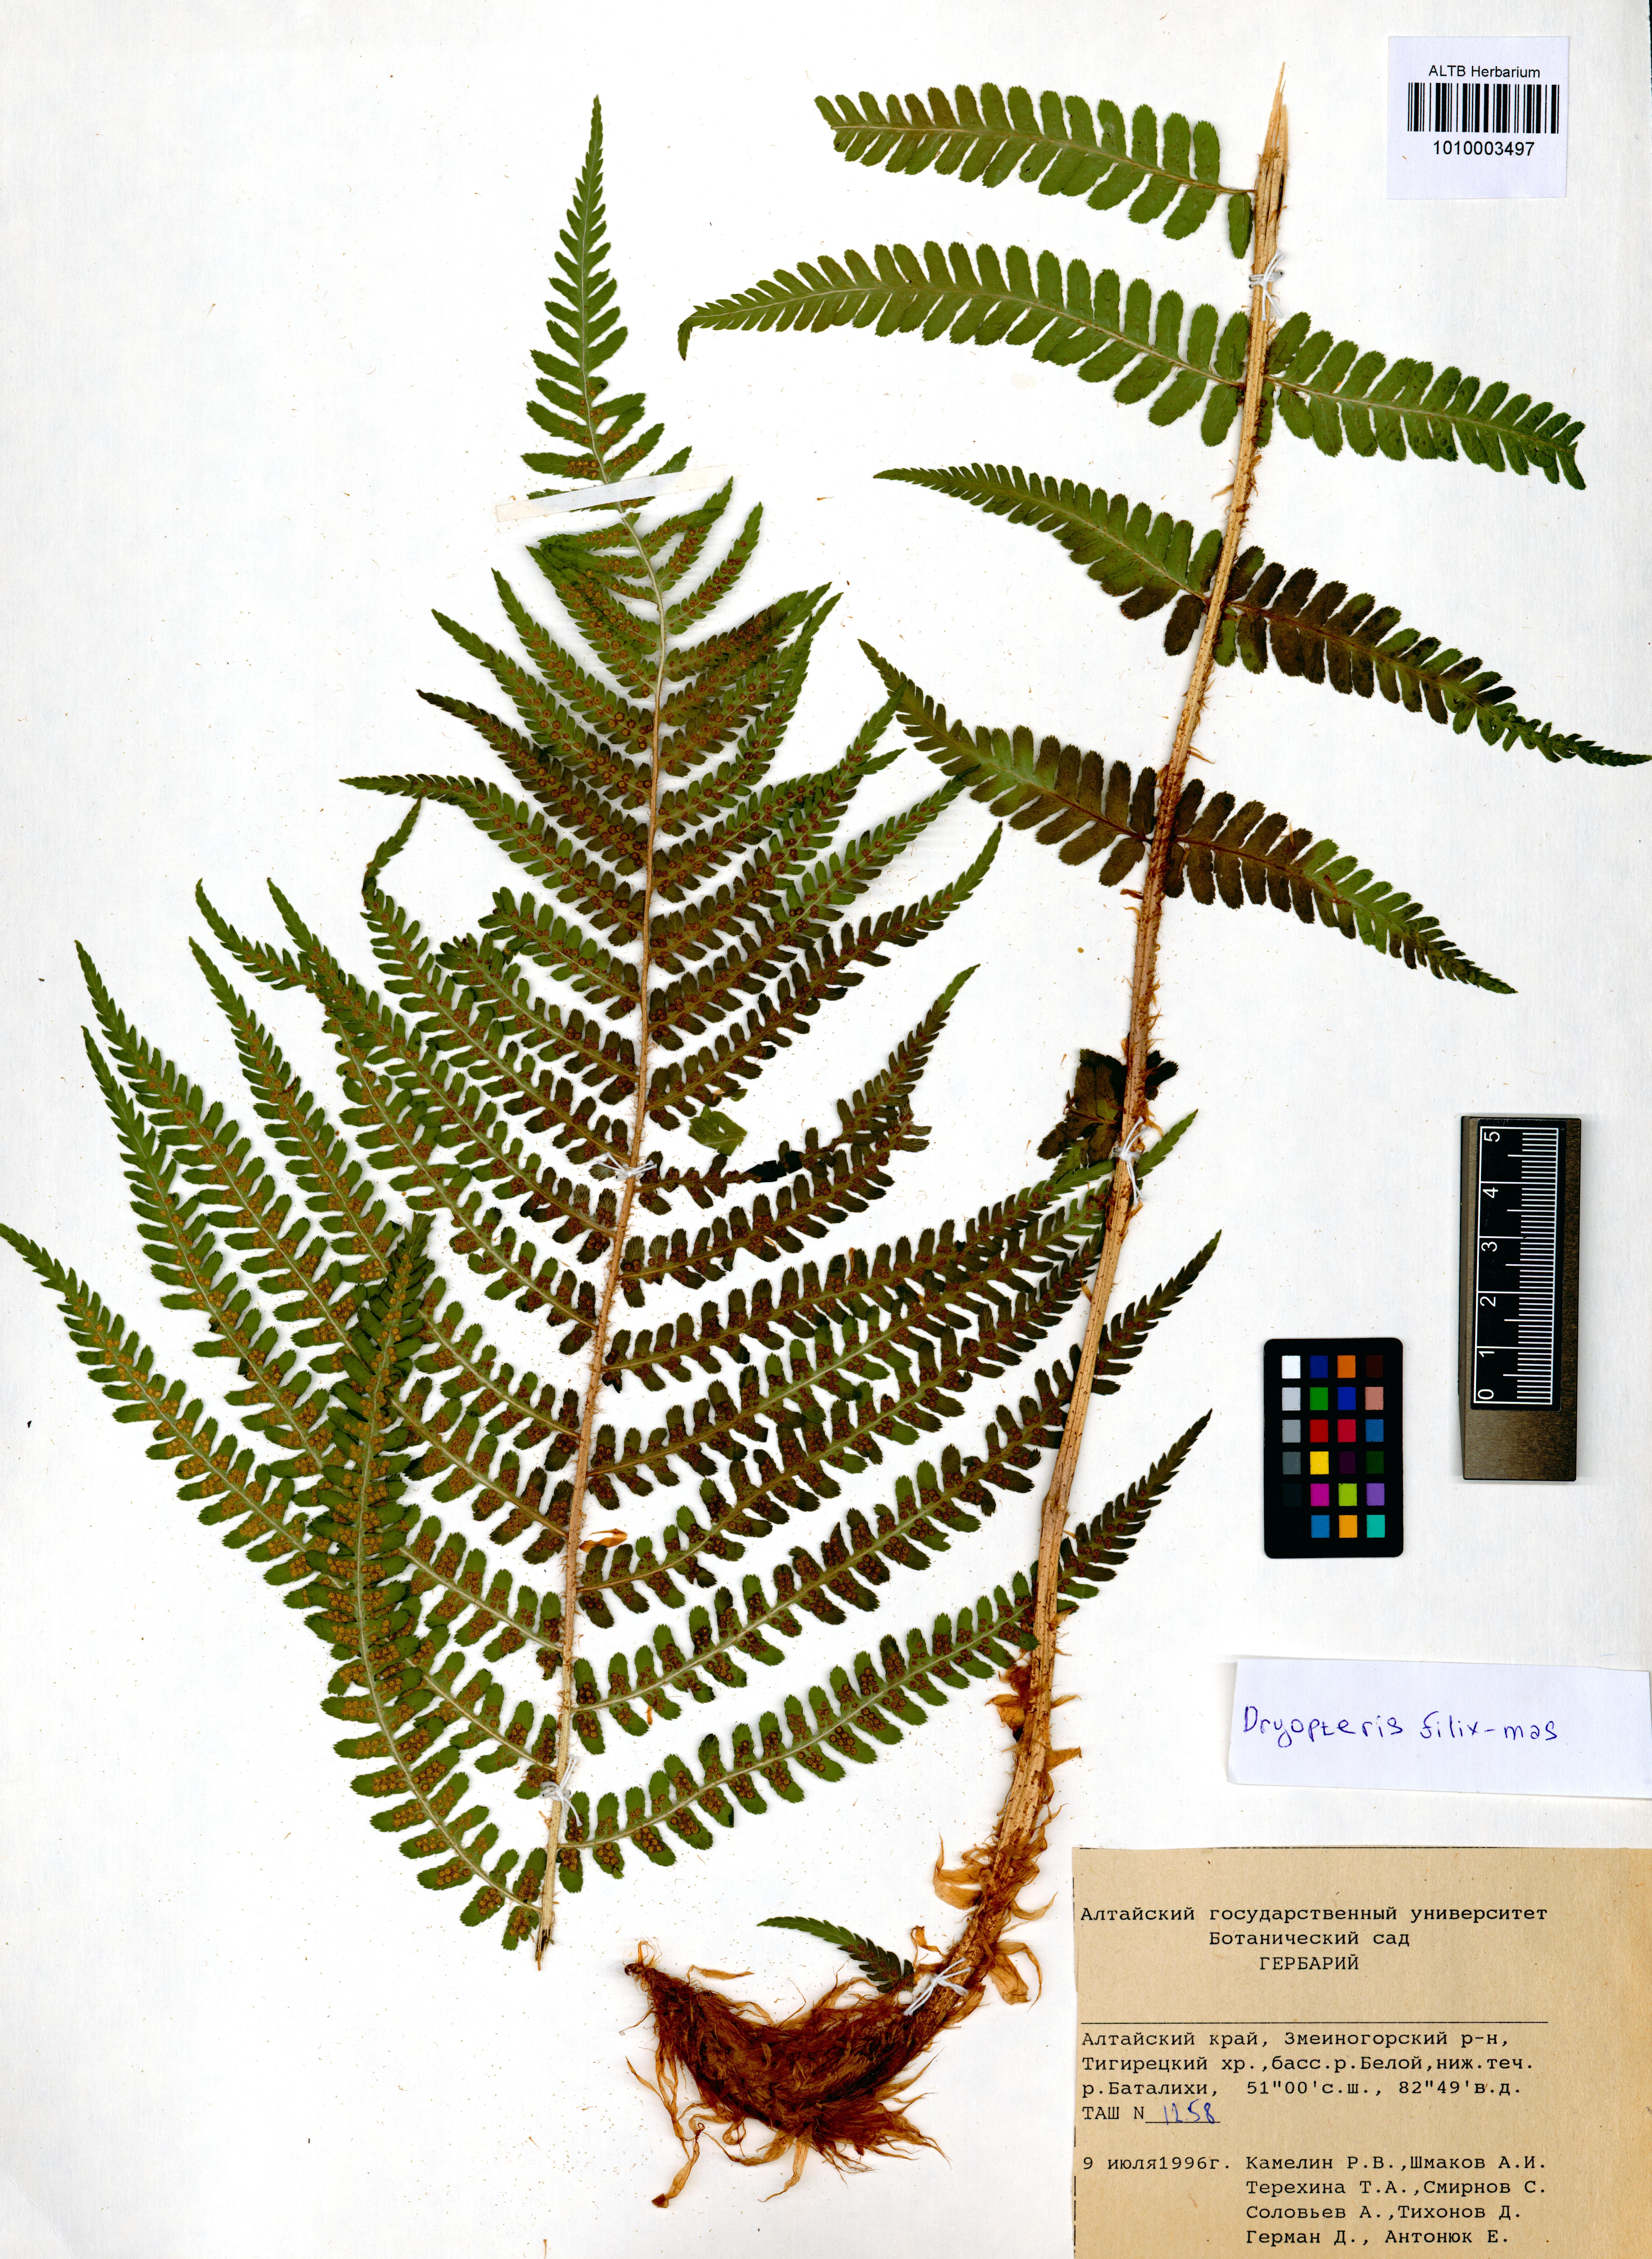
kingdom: Plantae
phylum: Tracheophyta
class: Polypodiopsida
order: Polypodiales
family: Dryopteridaceae
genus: Dryopteris
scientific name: Dryopteris filix-mas
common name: Male fern
